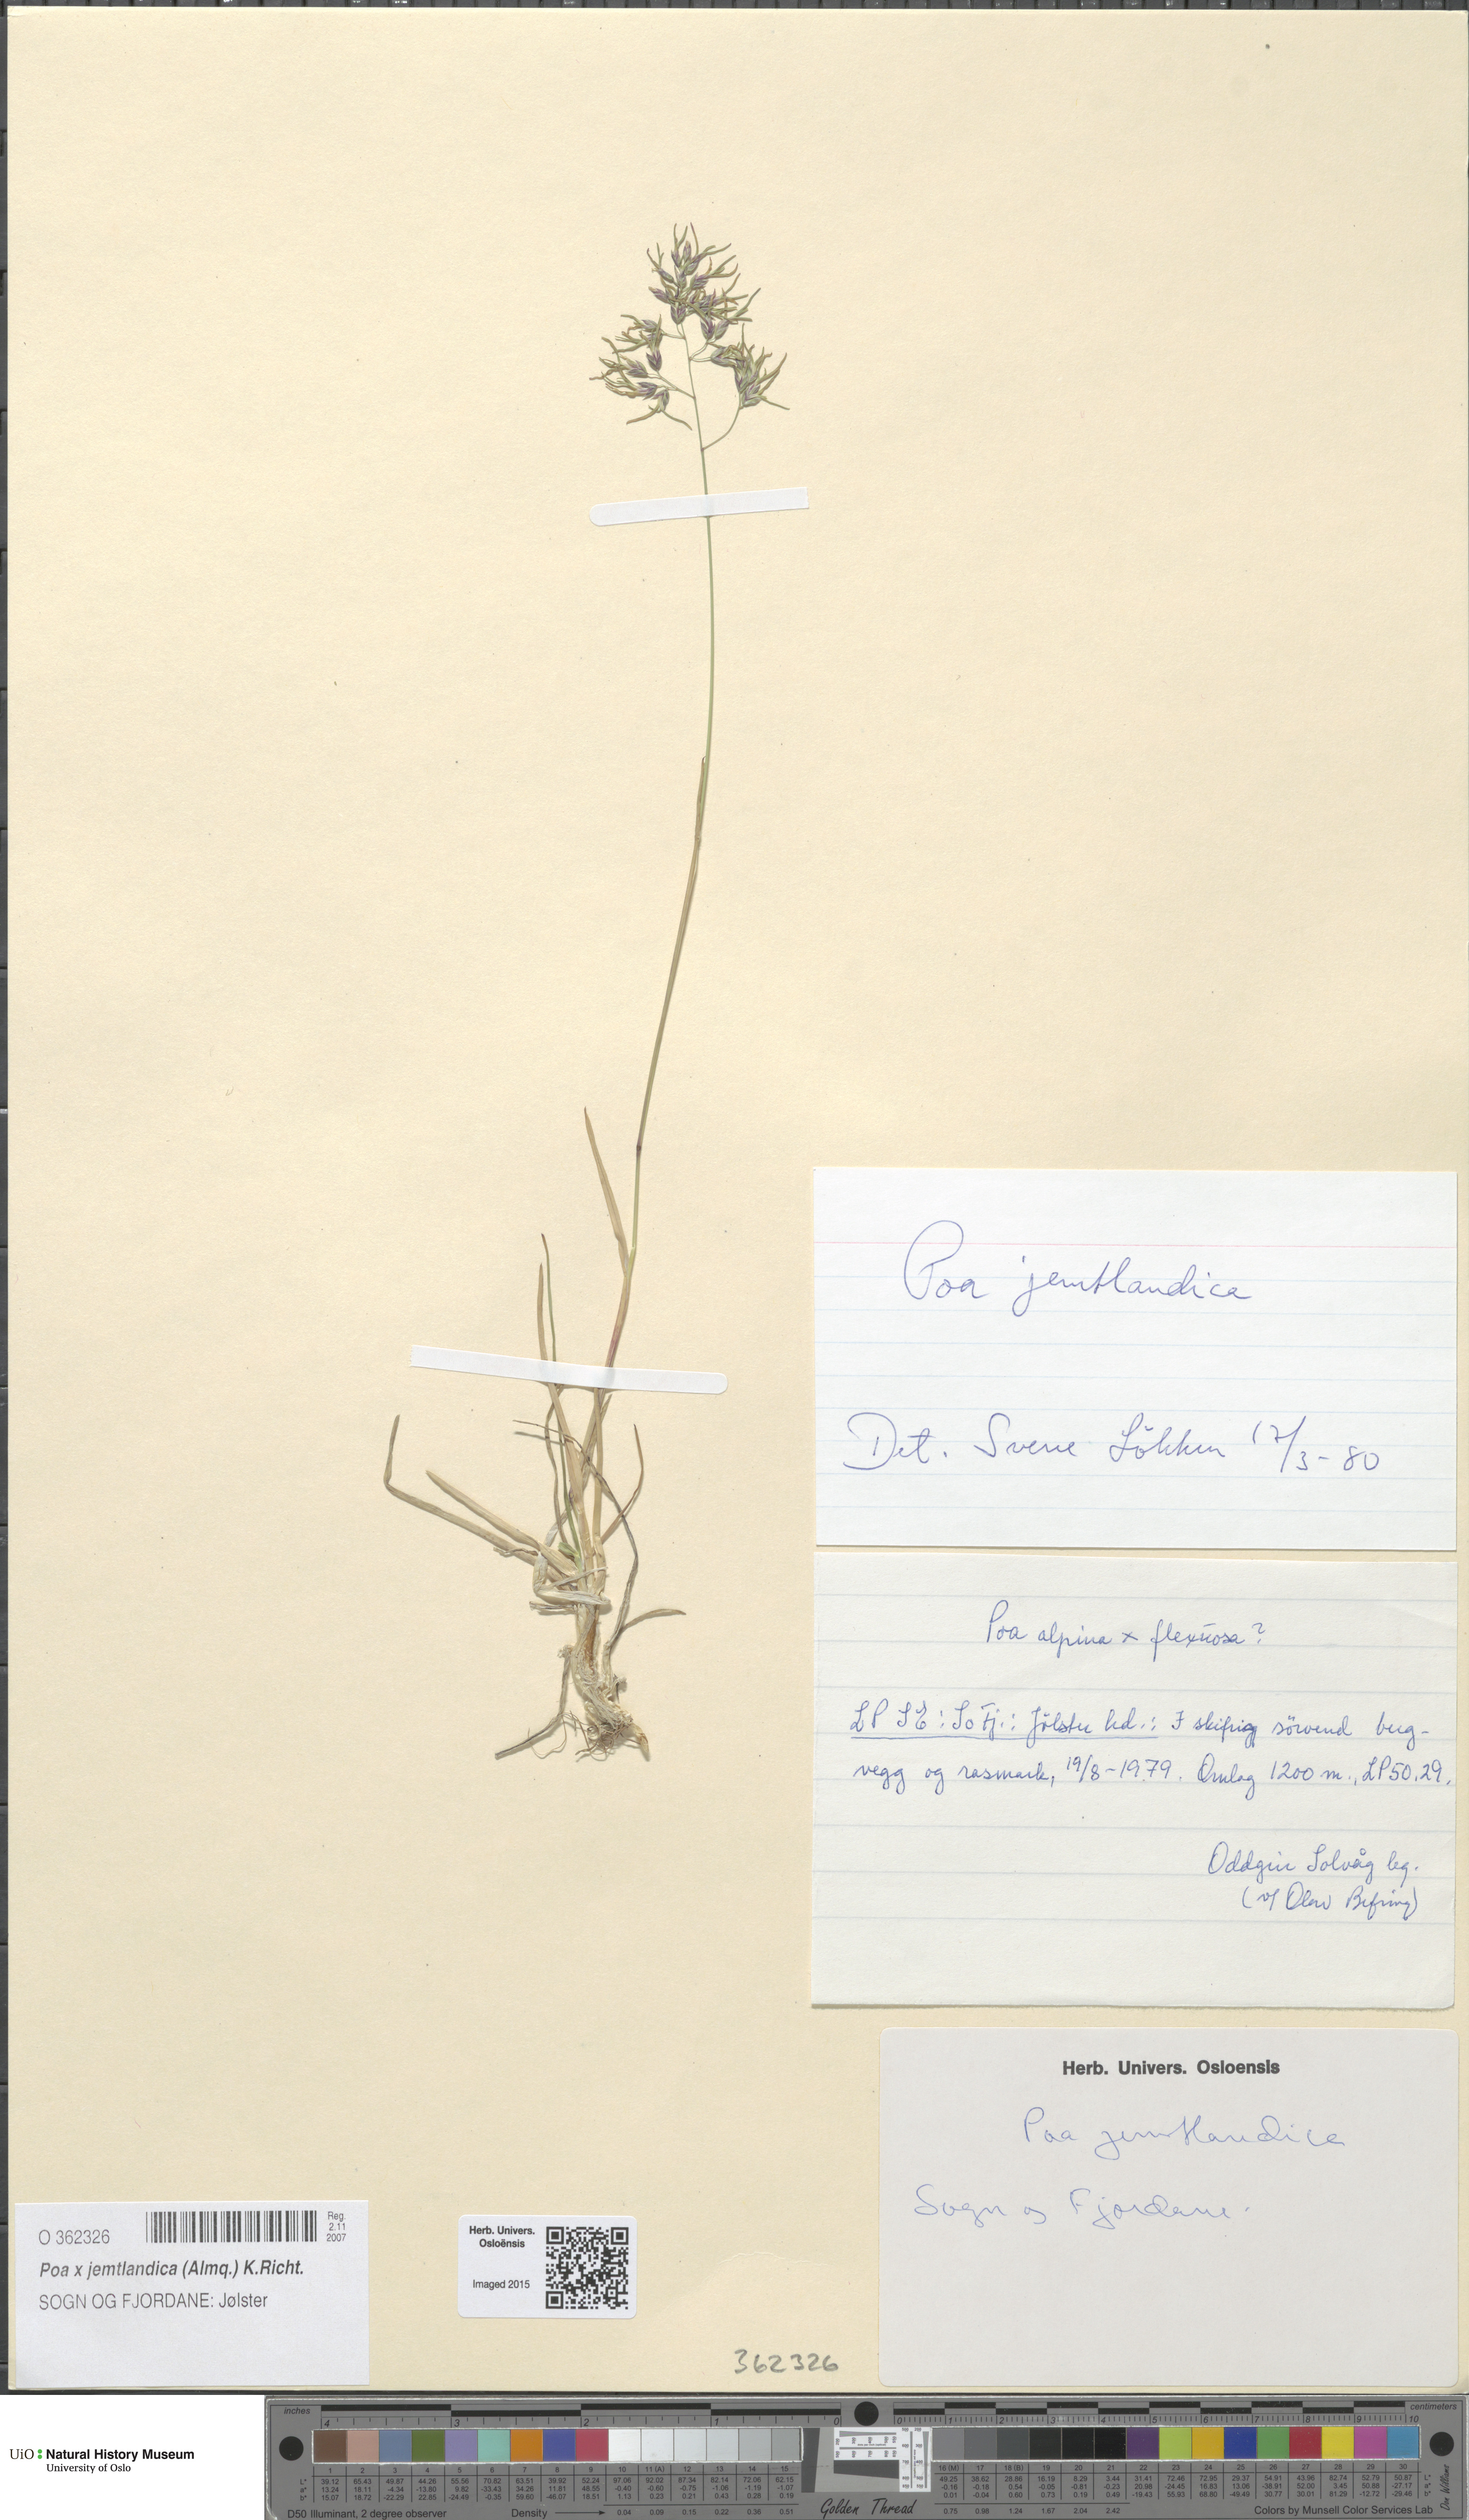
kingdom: Plantae
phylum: Tracheophyta
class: Liliopsida
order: Poales
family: Poaceae
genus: Poa
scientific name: Poa jemtlandica
